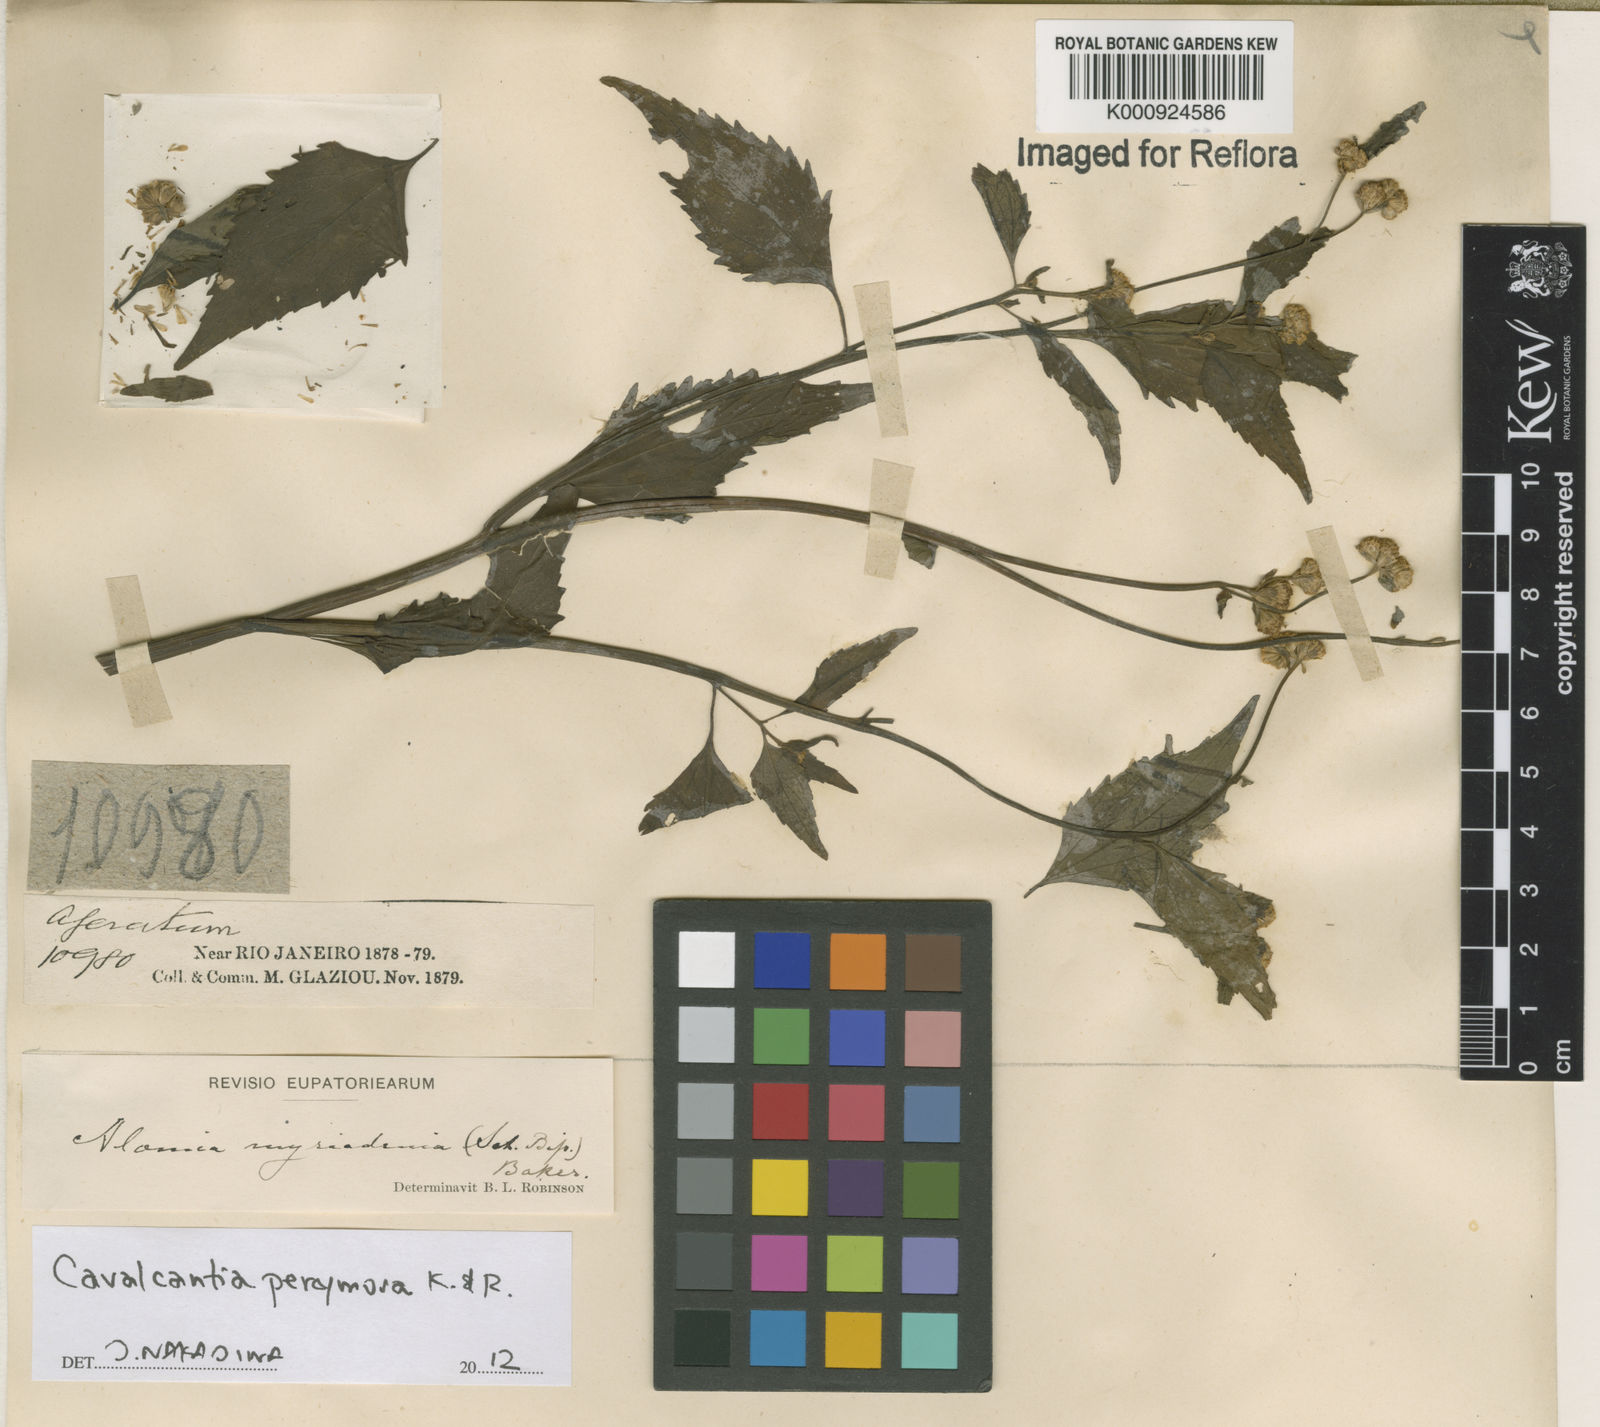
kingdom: Plantae
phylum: Tracheophyta
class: Magnoliopsida
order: Asterales
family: Asteraceae
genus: Cavalcantia
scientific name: Cavalcantia percymosa
